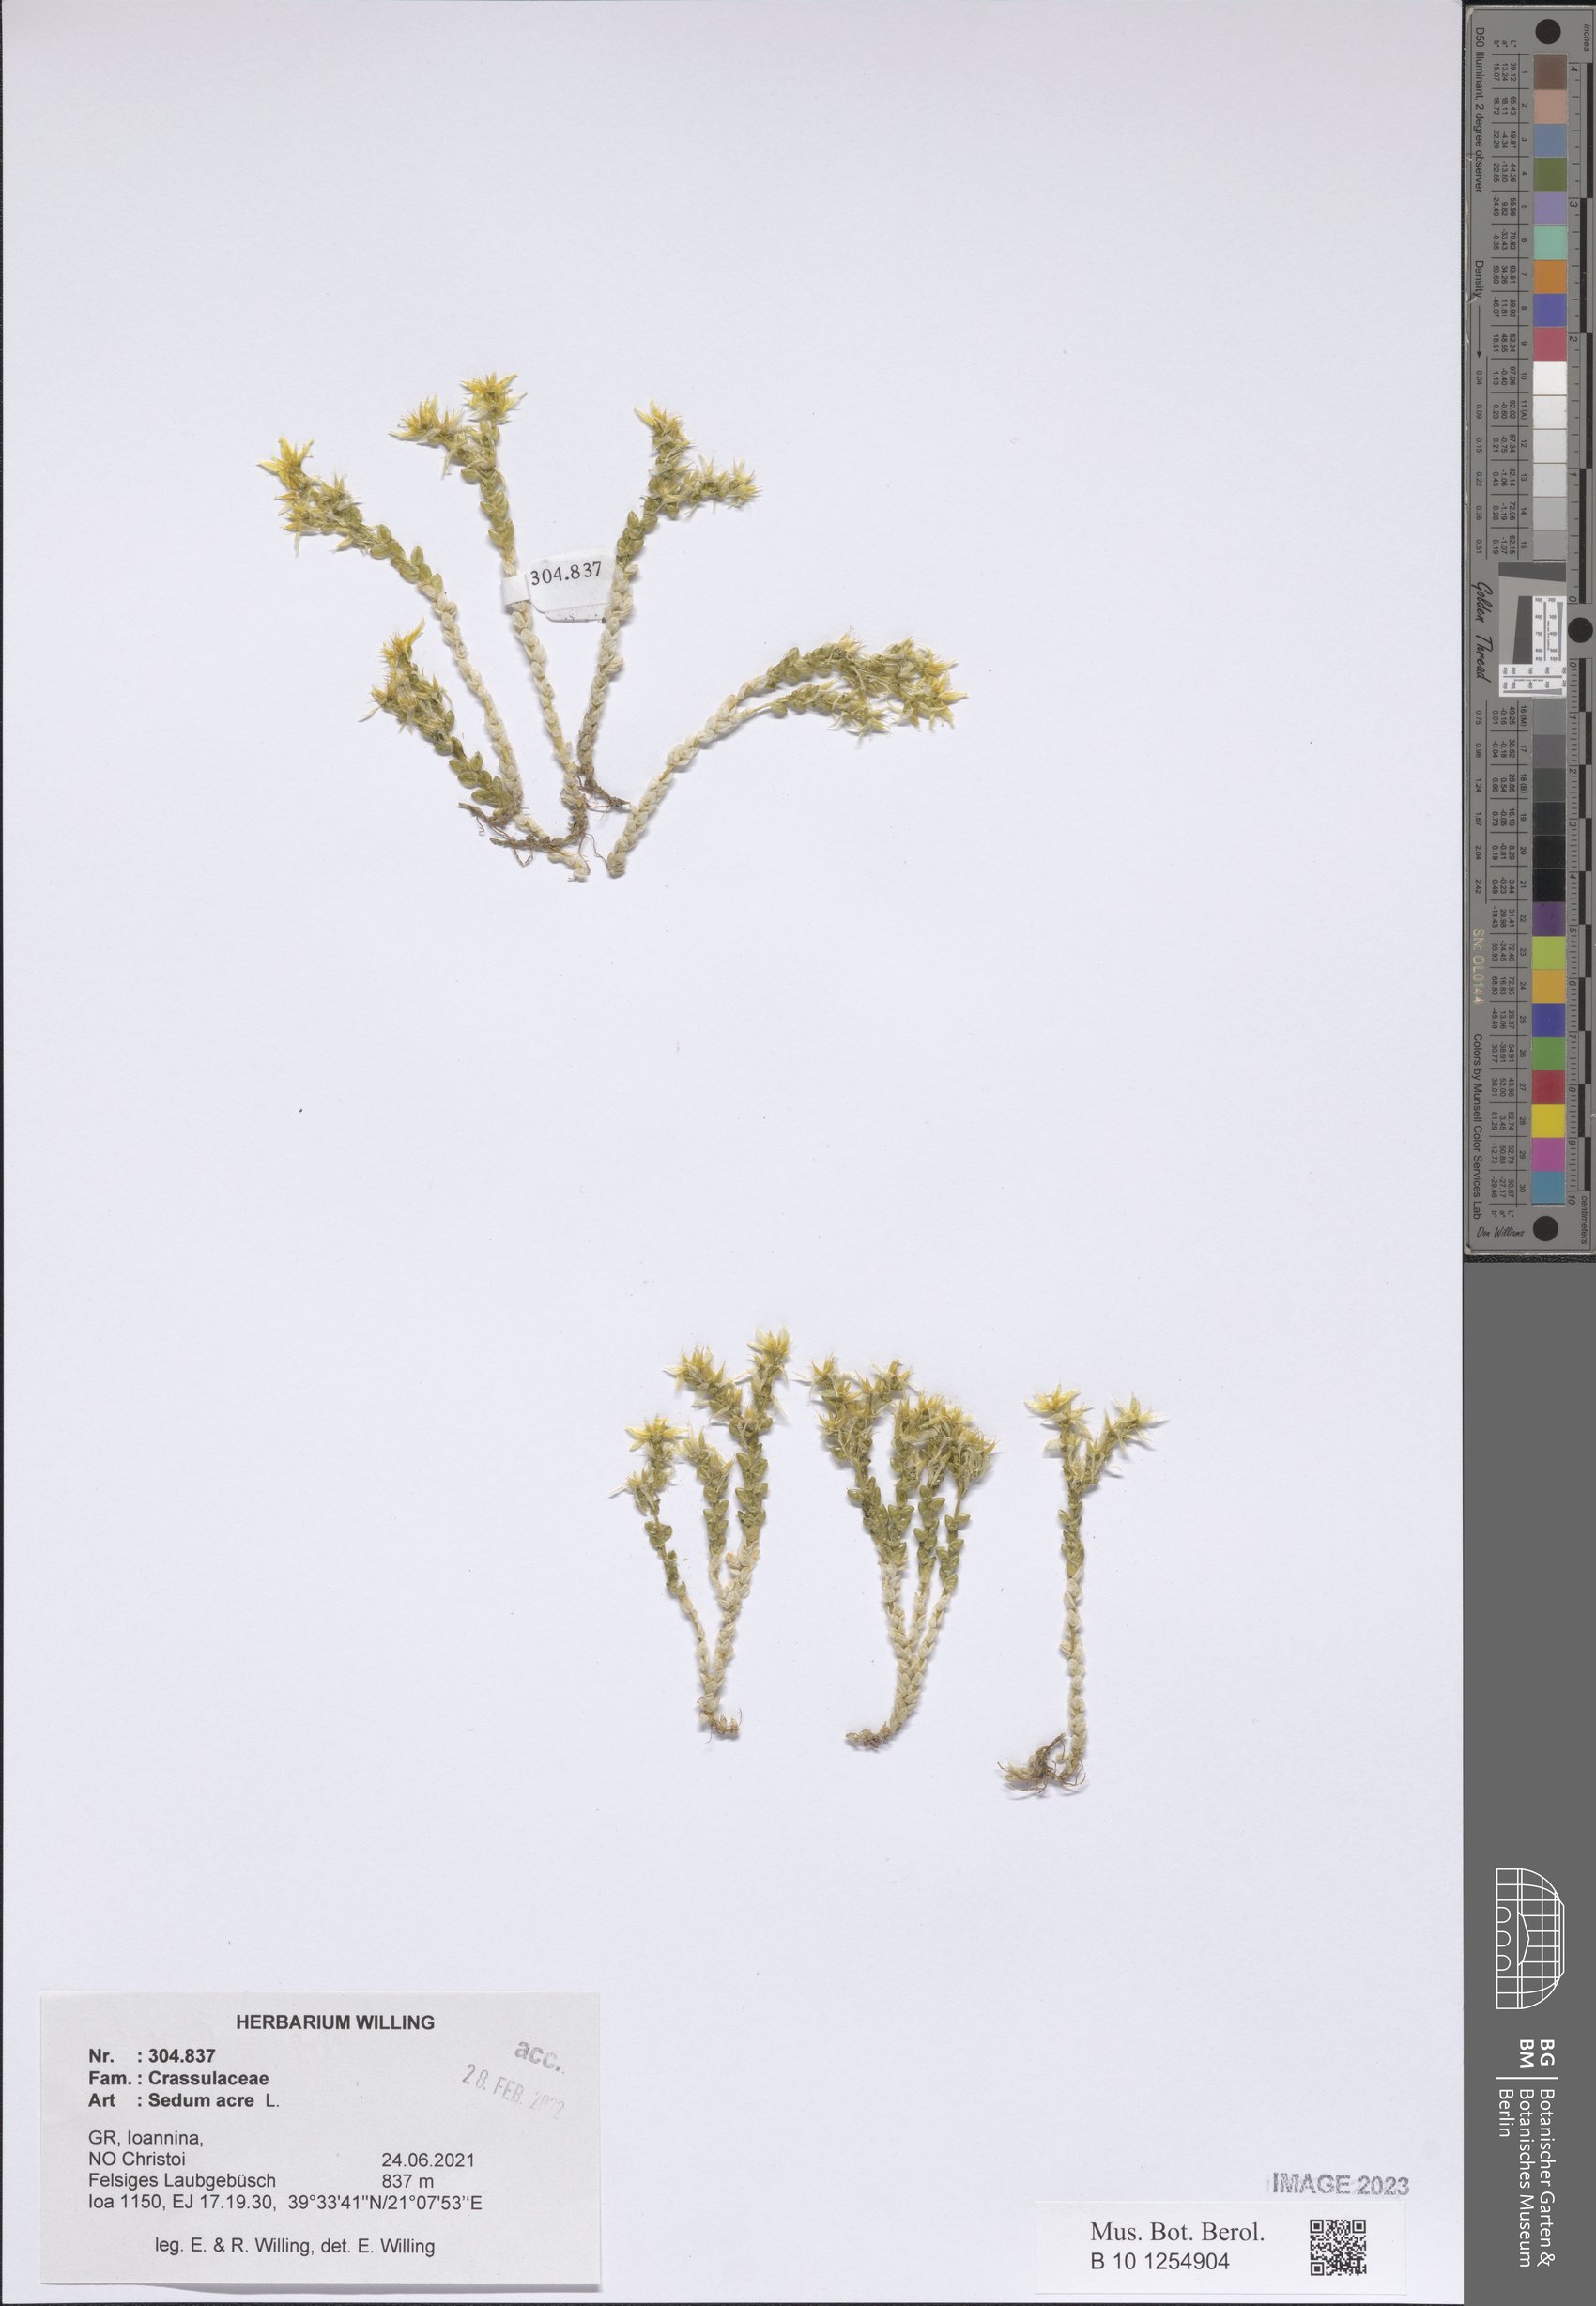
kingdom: Plantae
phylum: Tracheophyta
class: Magnoliopsida
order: Saxifragales
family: Crassulaceae
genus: Sedum
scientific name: Sedum acre
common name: Biting stonecrop
